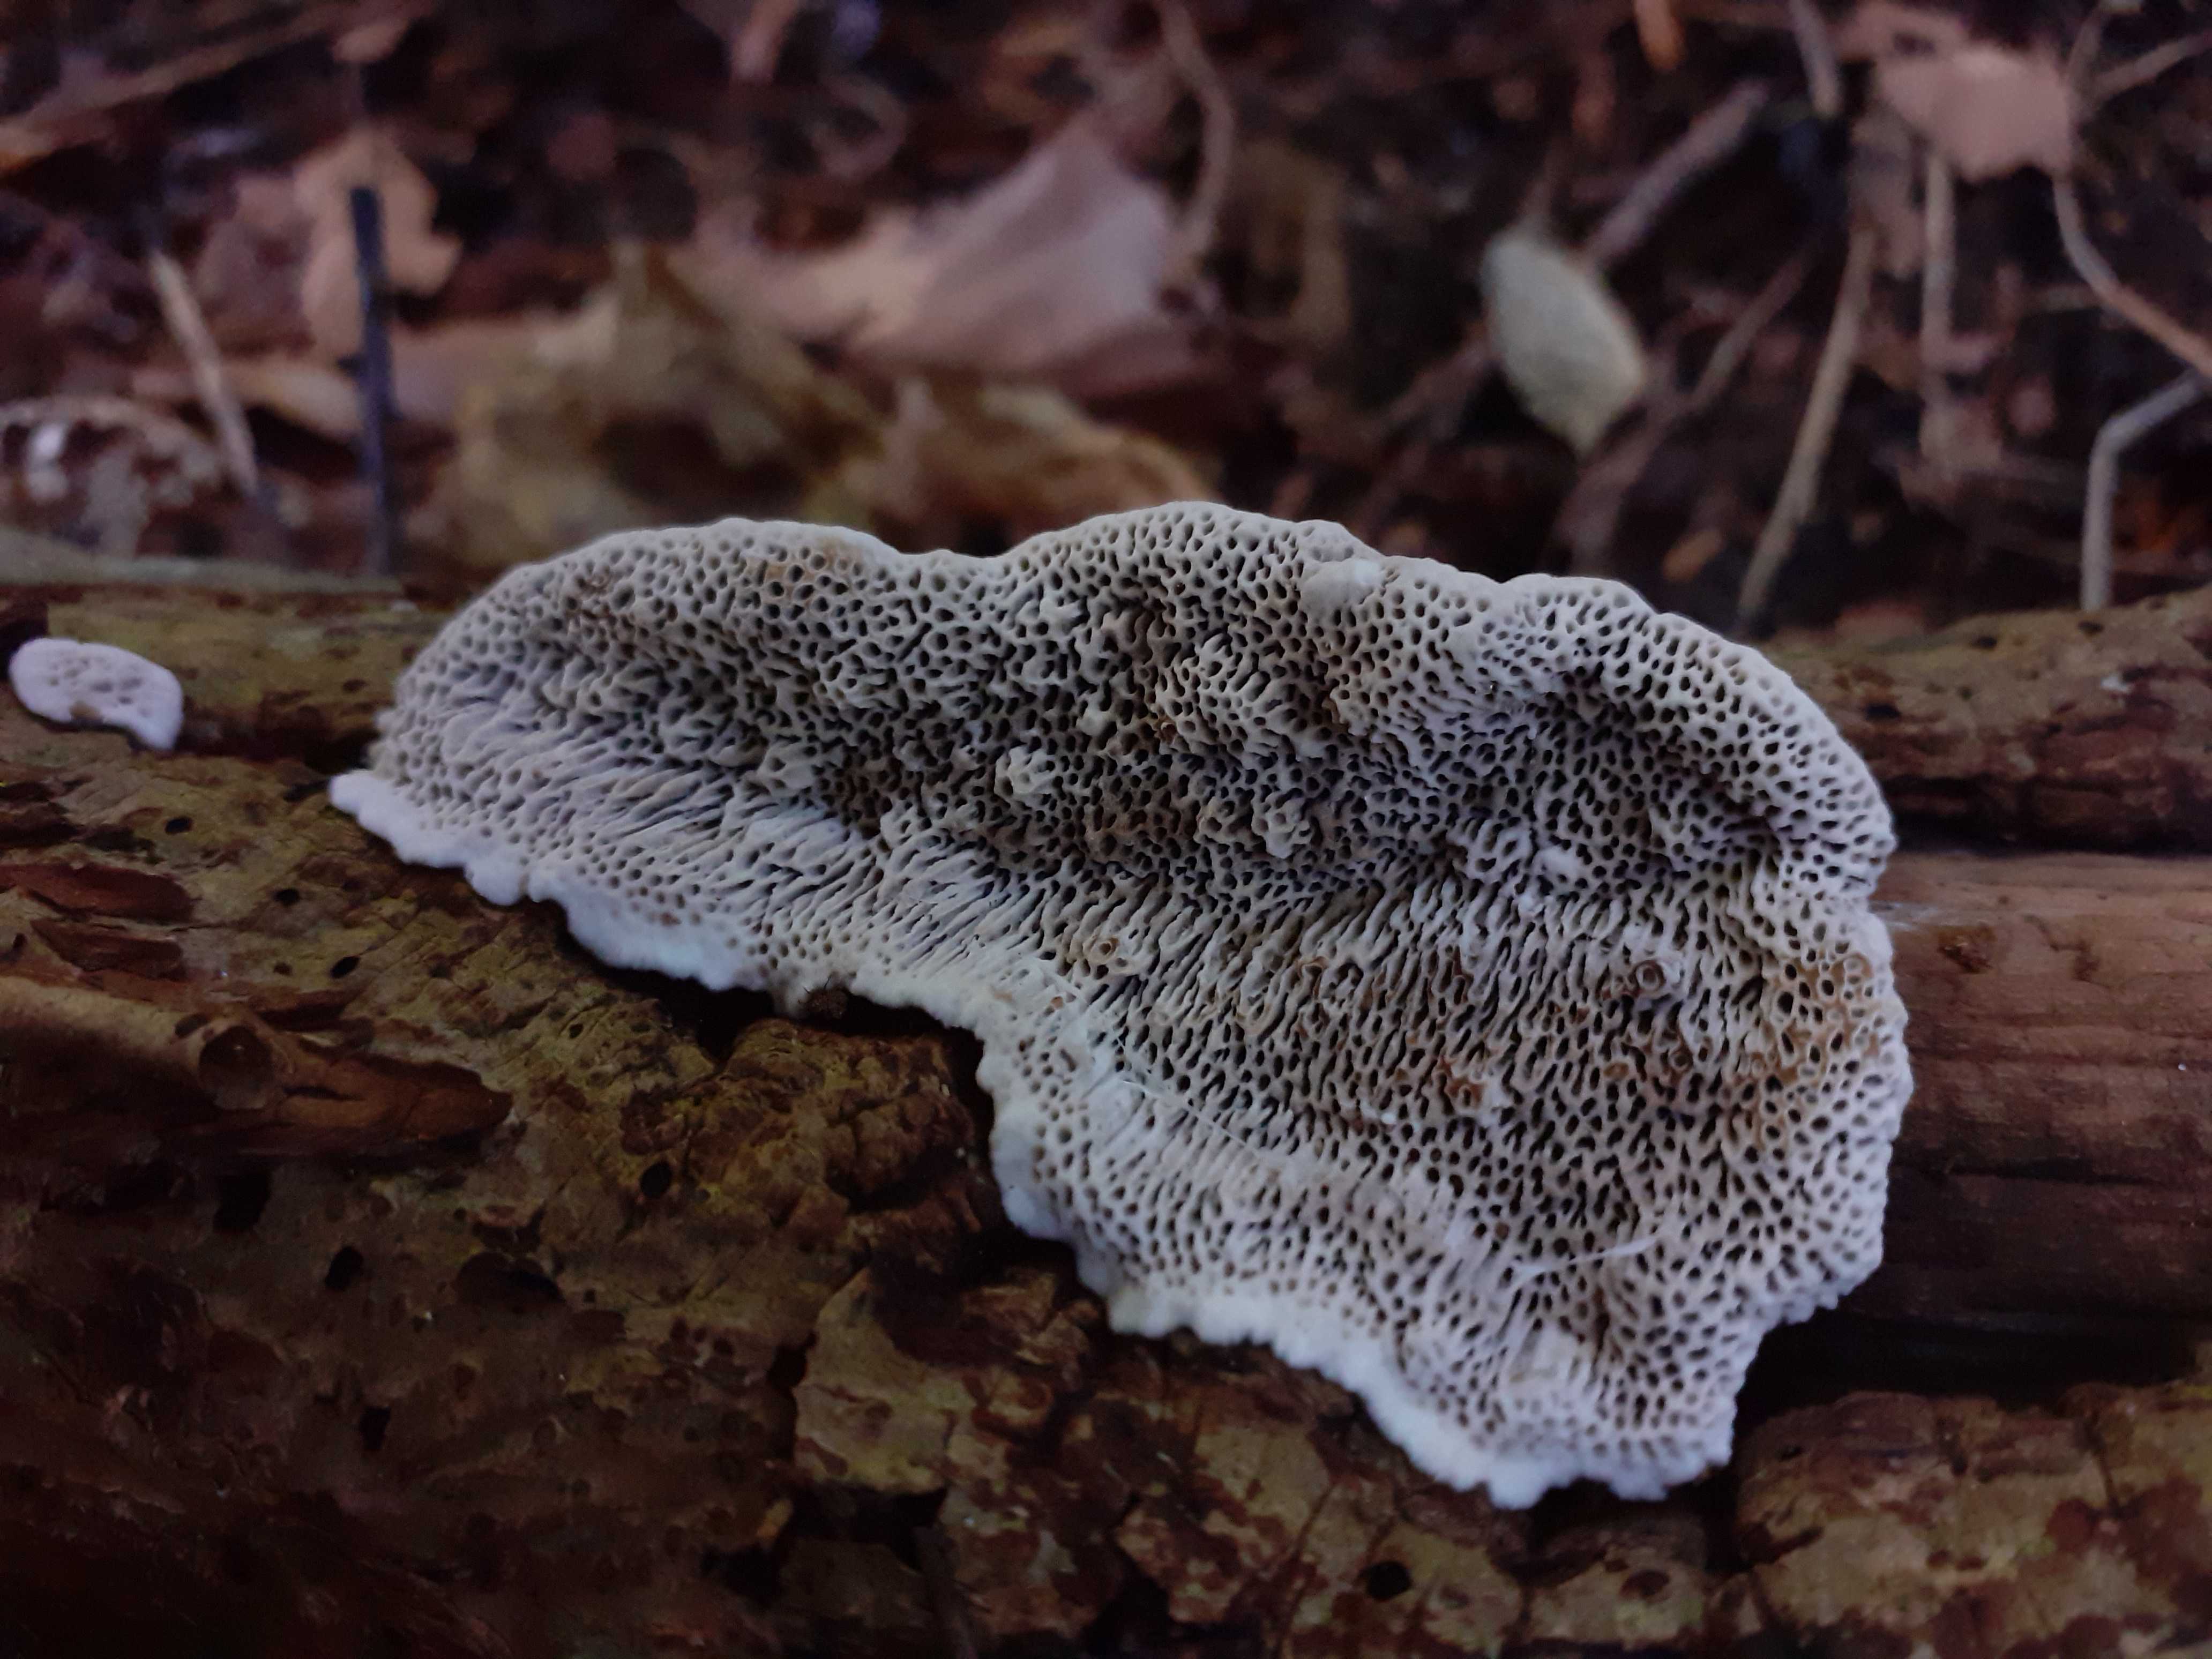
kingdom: Fungi
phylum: Basidiomycota
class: Agaricomycetes
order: Polyporales
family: Polyporaceae
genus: Podofomes
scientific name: Podofomes mollis
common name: blød begporesvamp
